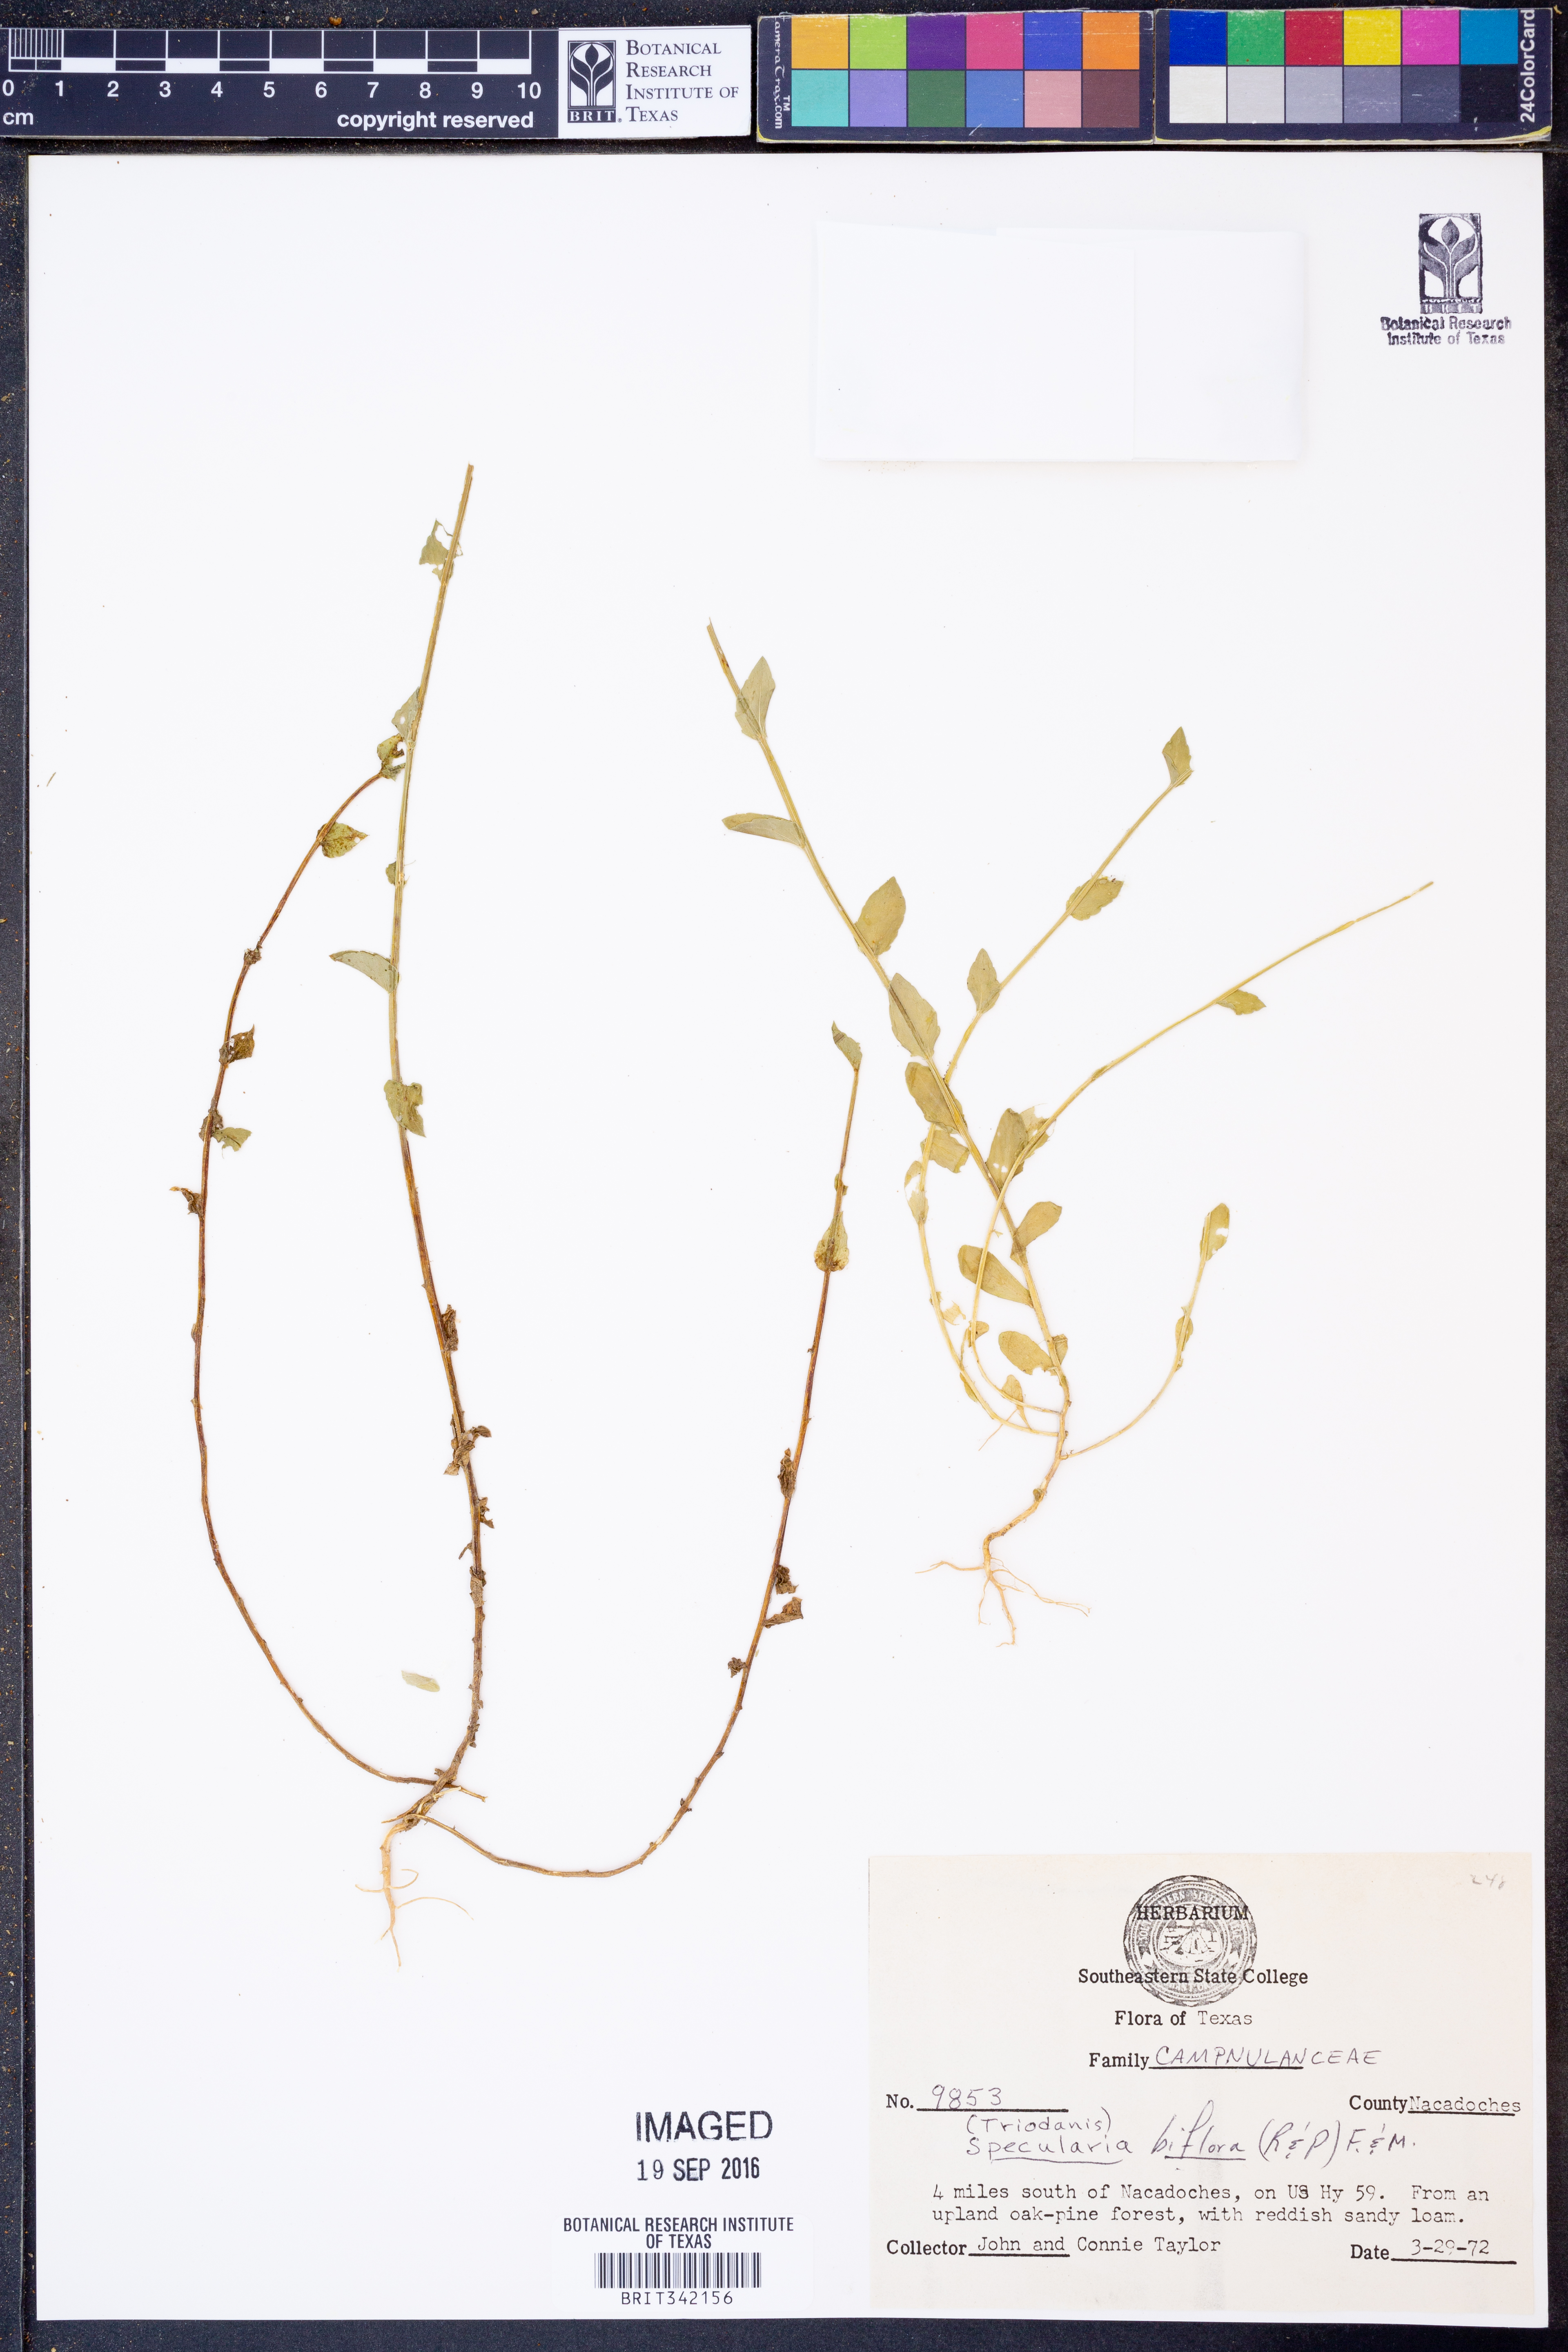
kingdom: Plantae
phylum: Tracheophyta
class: Magnoliopsida
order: Asterales
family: Campanulaceae
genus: Triodanis
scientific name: Triodanis perfoliata
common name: Clasping venus' looking-glass
